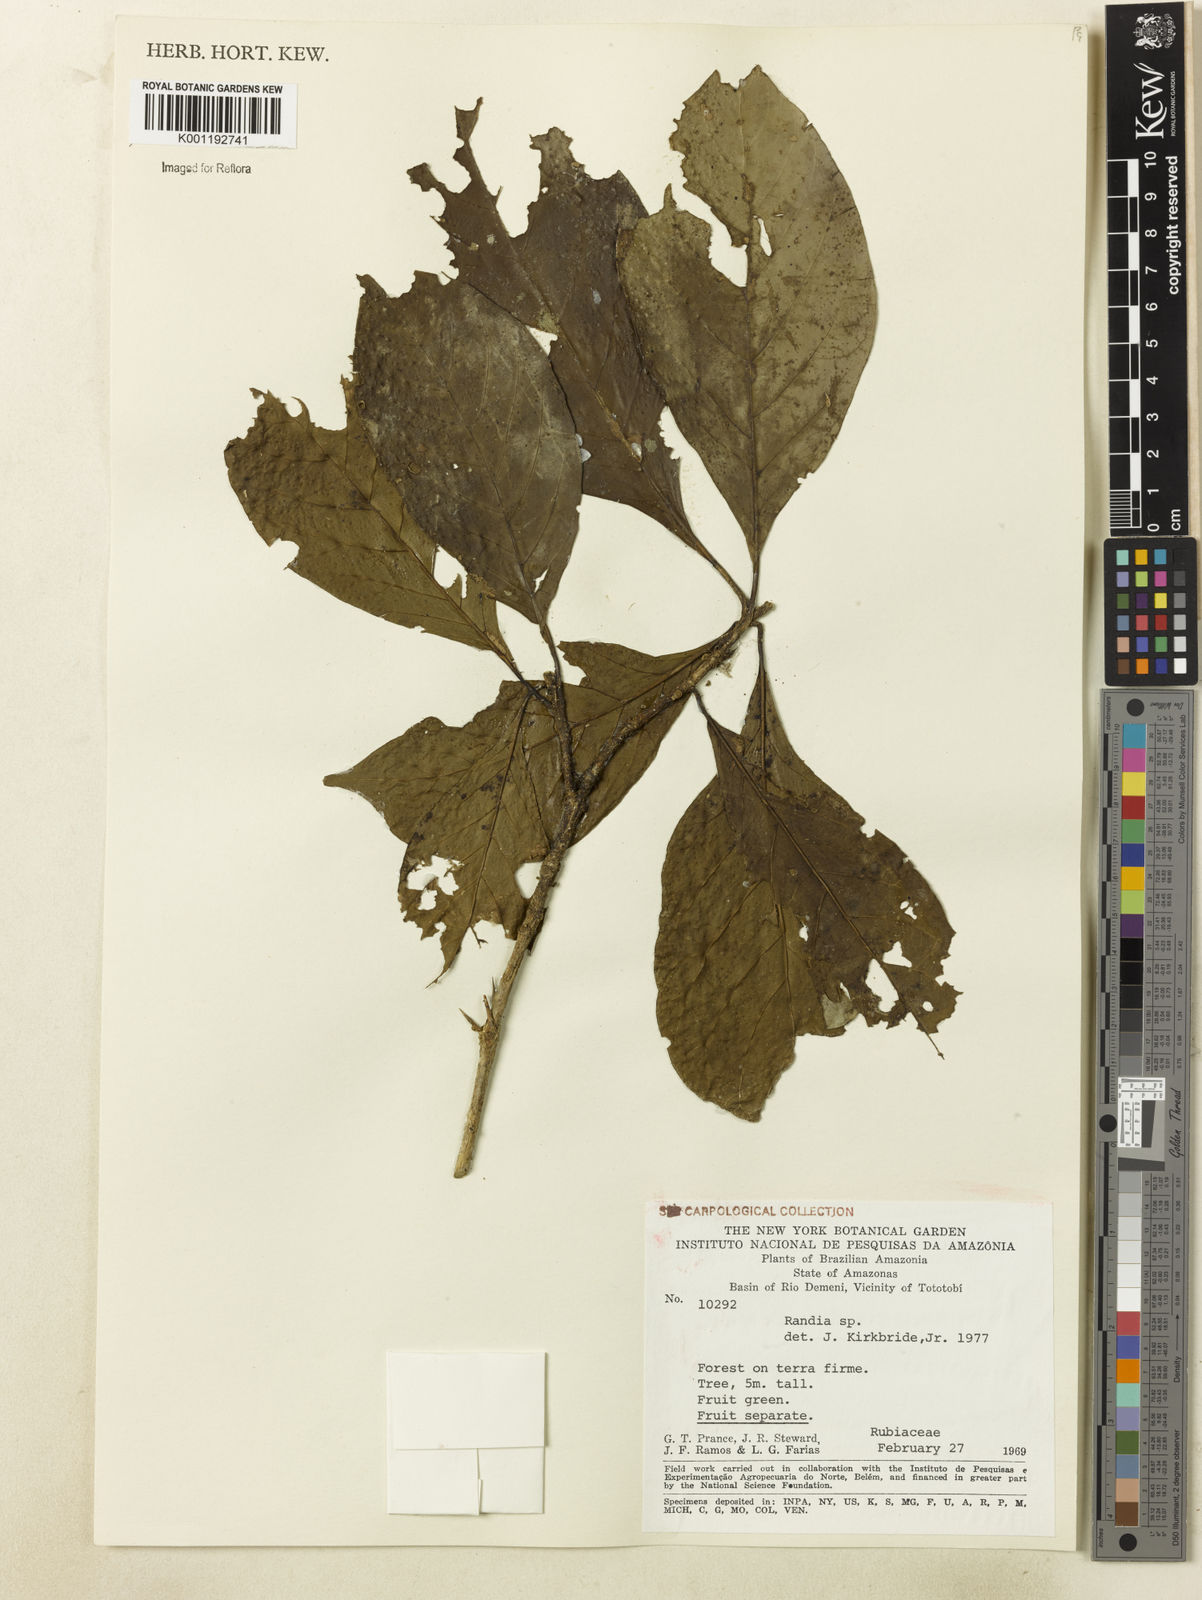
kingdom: Plantae
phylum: Tracheophyta
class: Magnoliopsida
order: Gentianales
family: Rubiaceae
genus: Randia
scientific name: Randia
